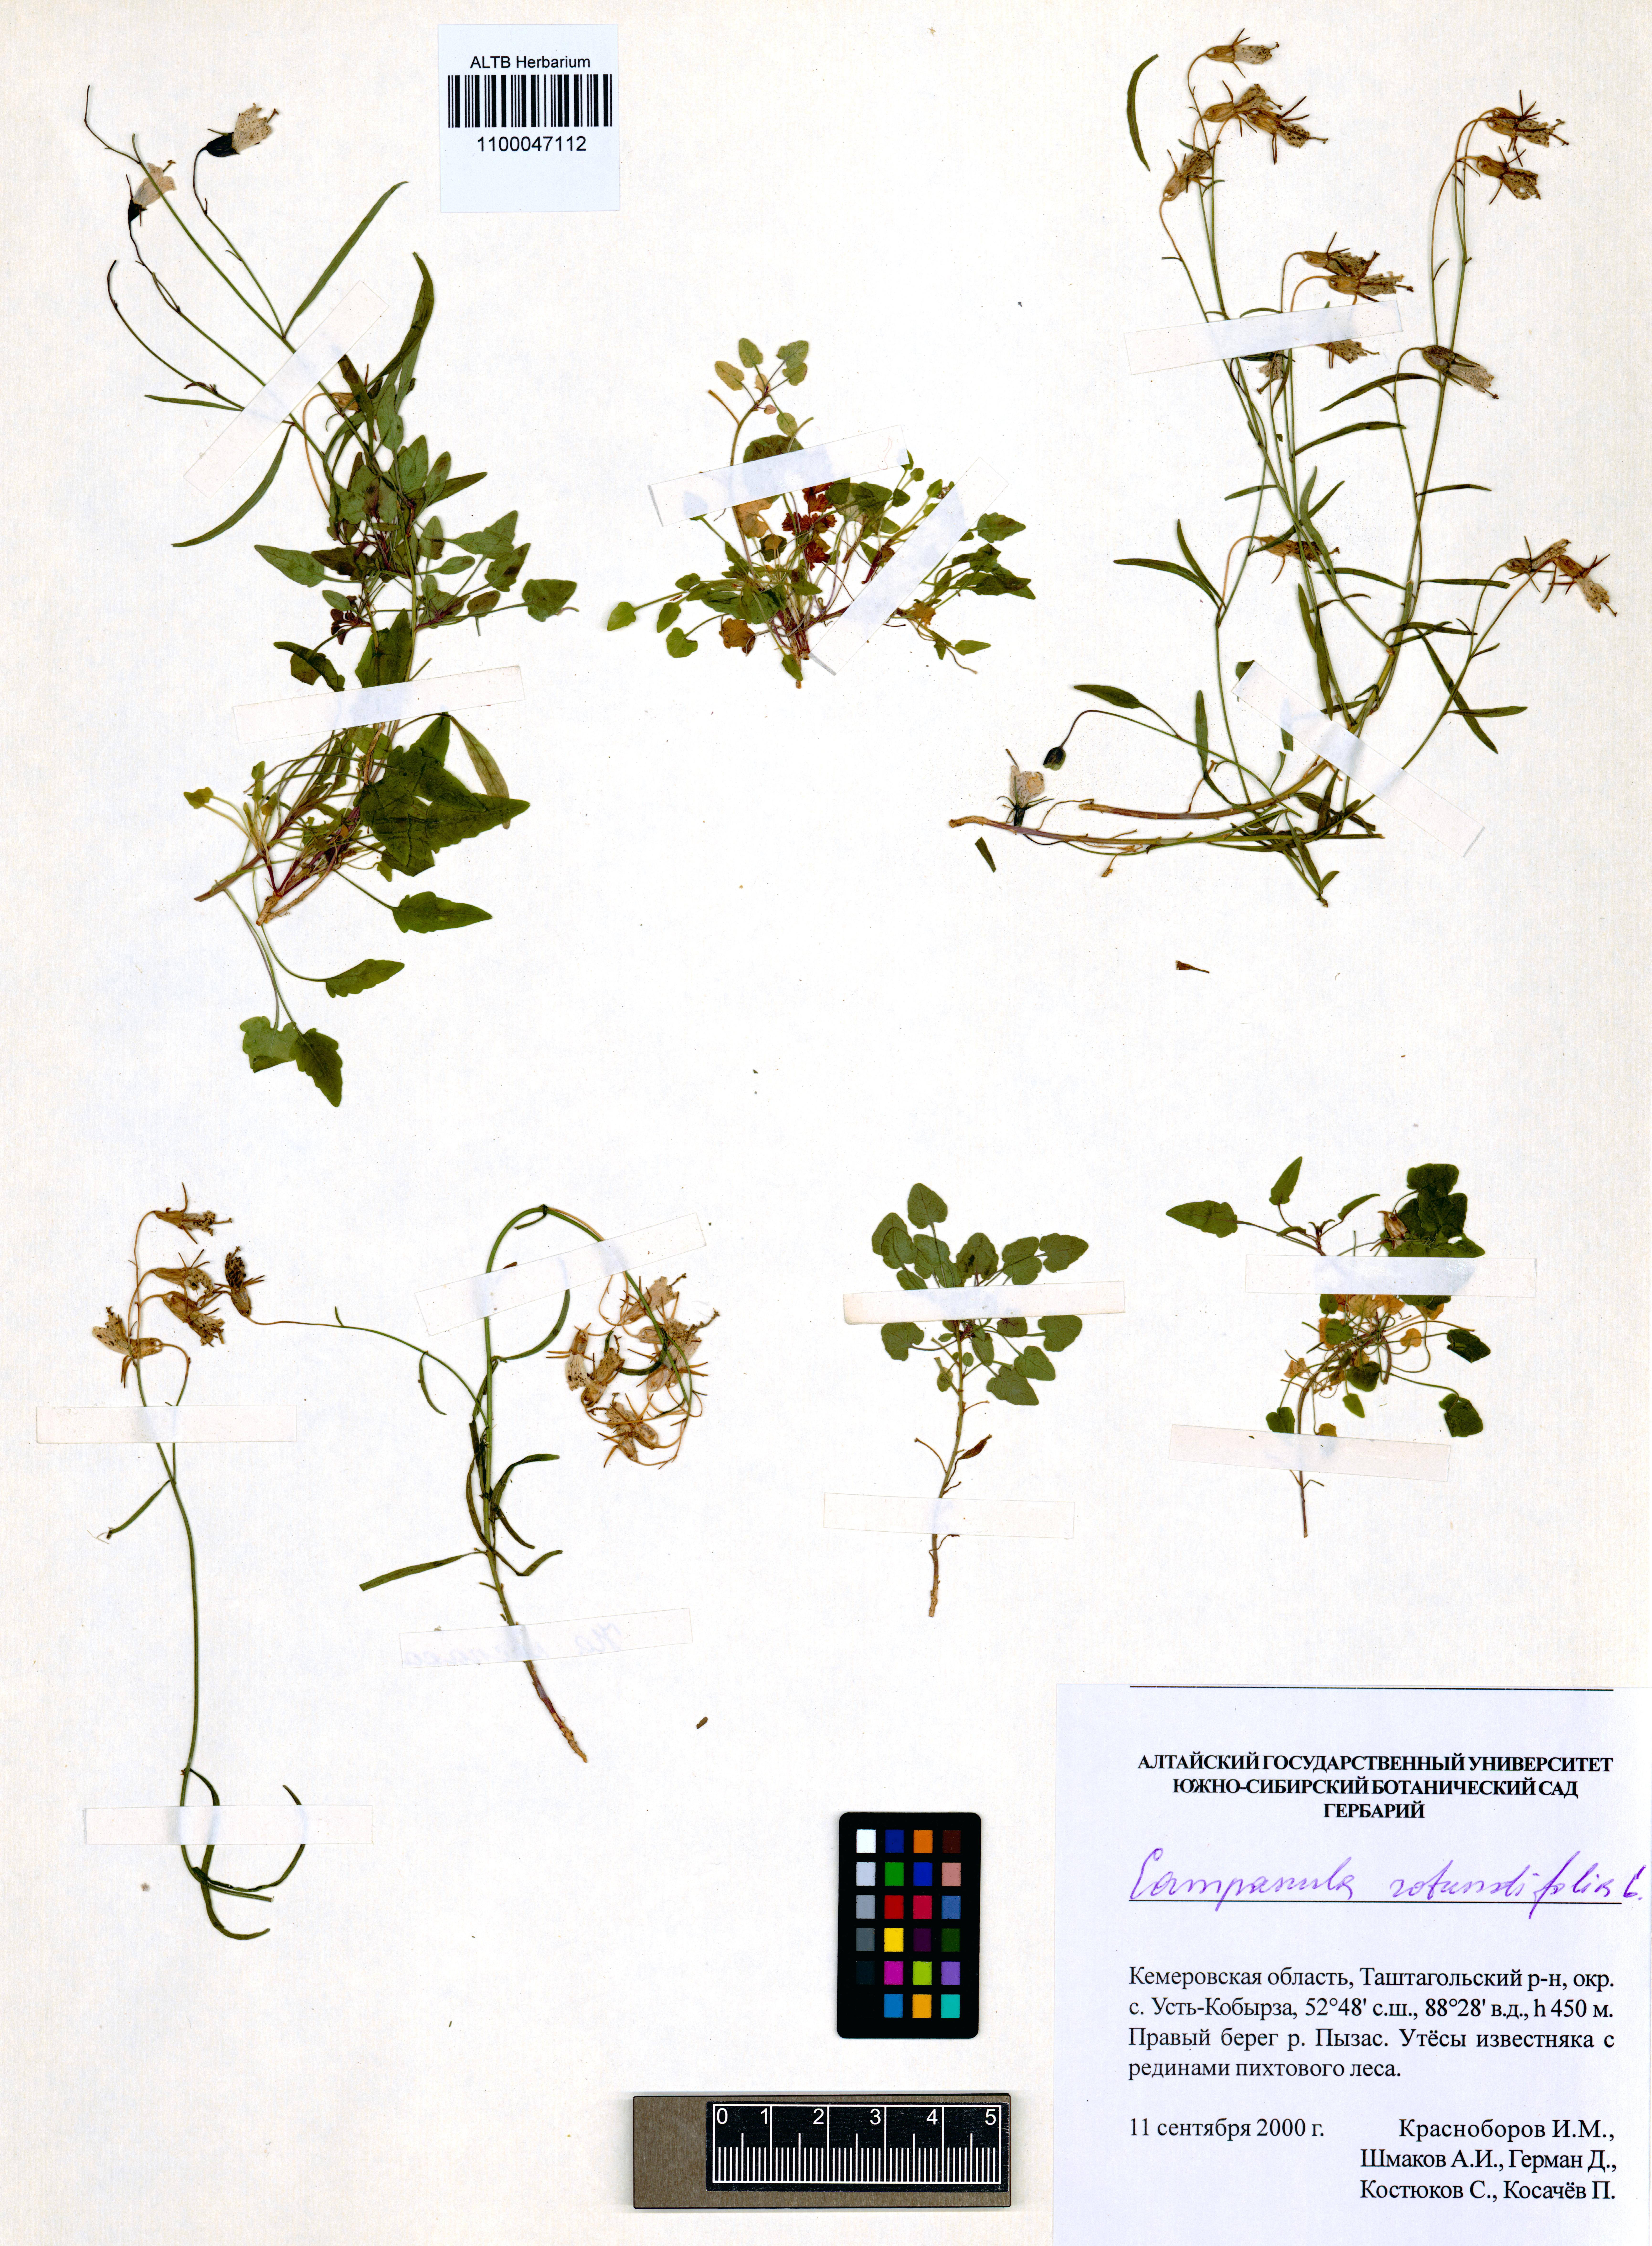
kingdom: Plantae
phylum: Tracheophyta
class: Magnoliopsida
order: Asterales
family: Campanulaceae
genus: Campanula
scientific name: Campanula rotundifolia
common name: Harebell
